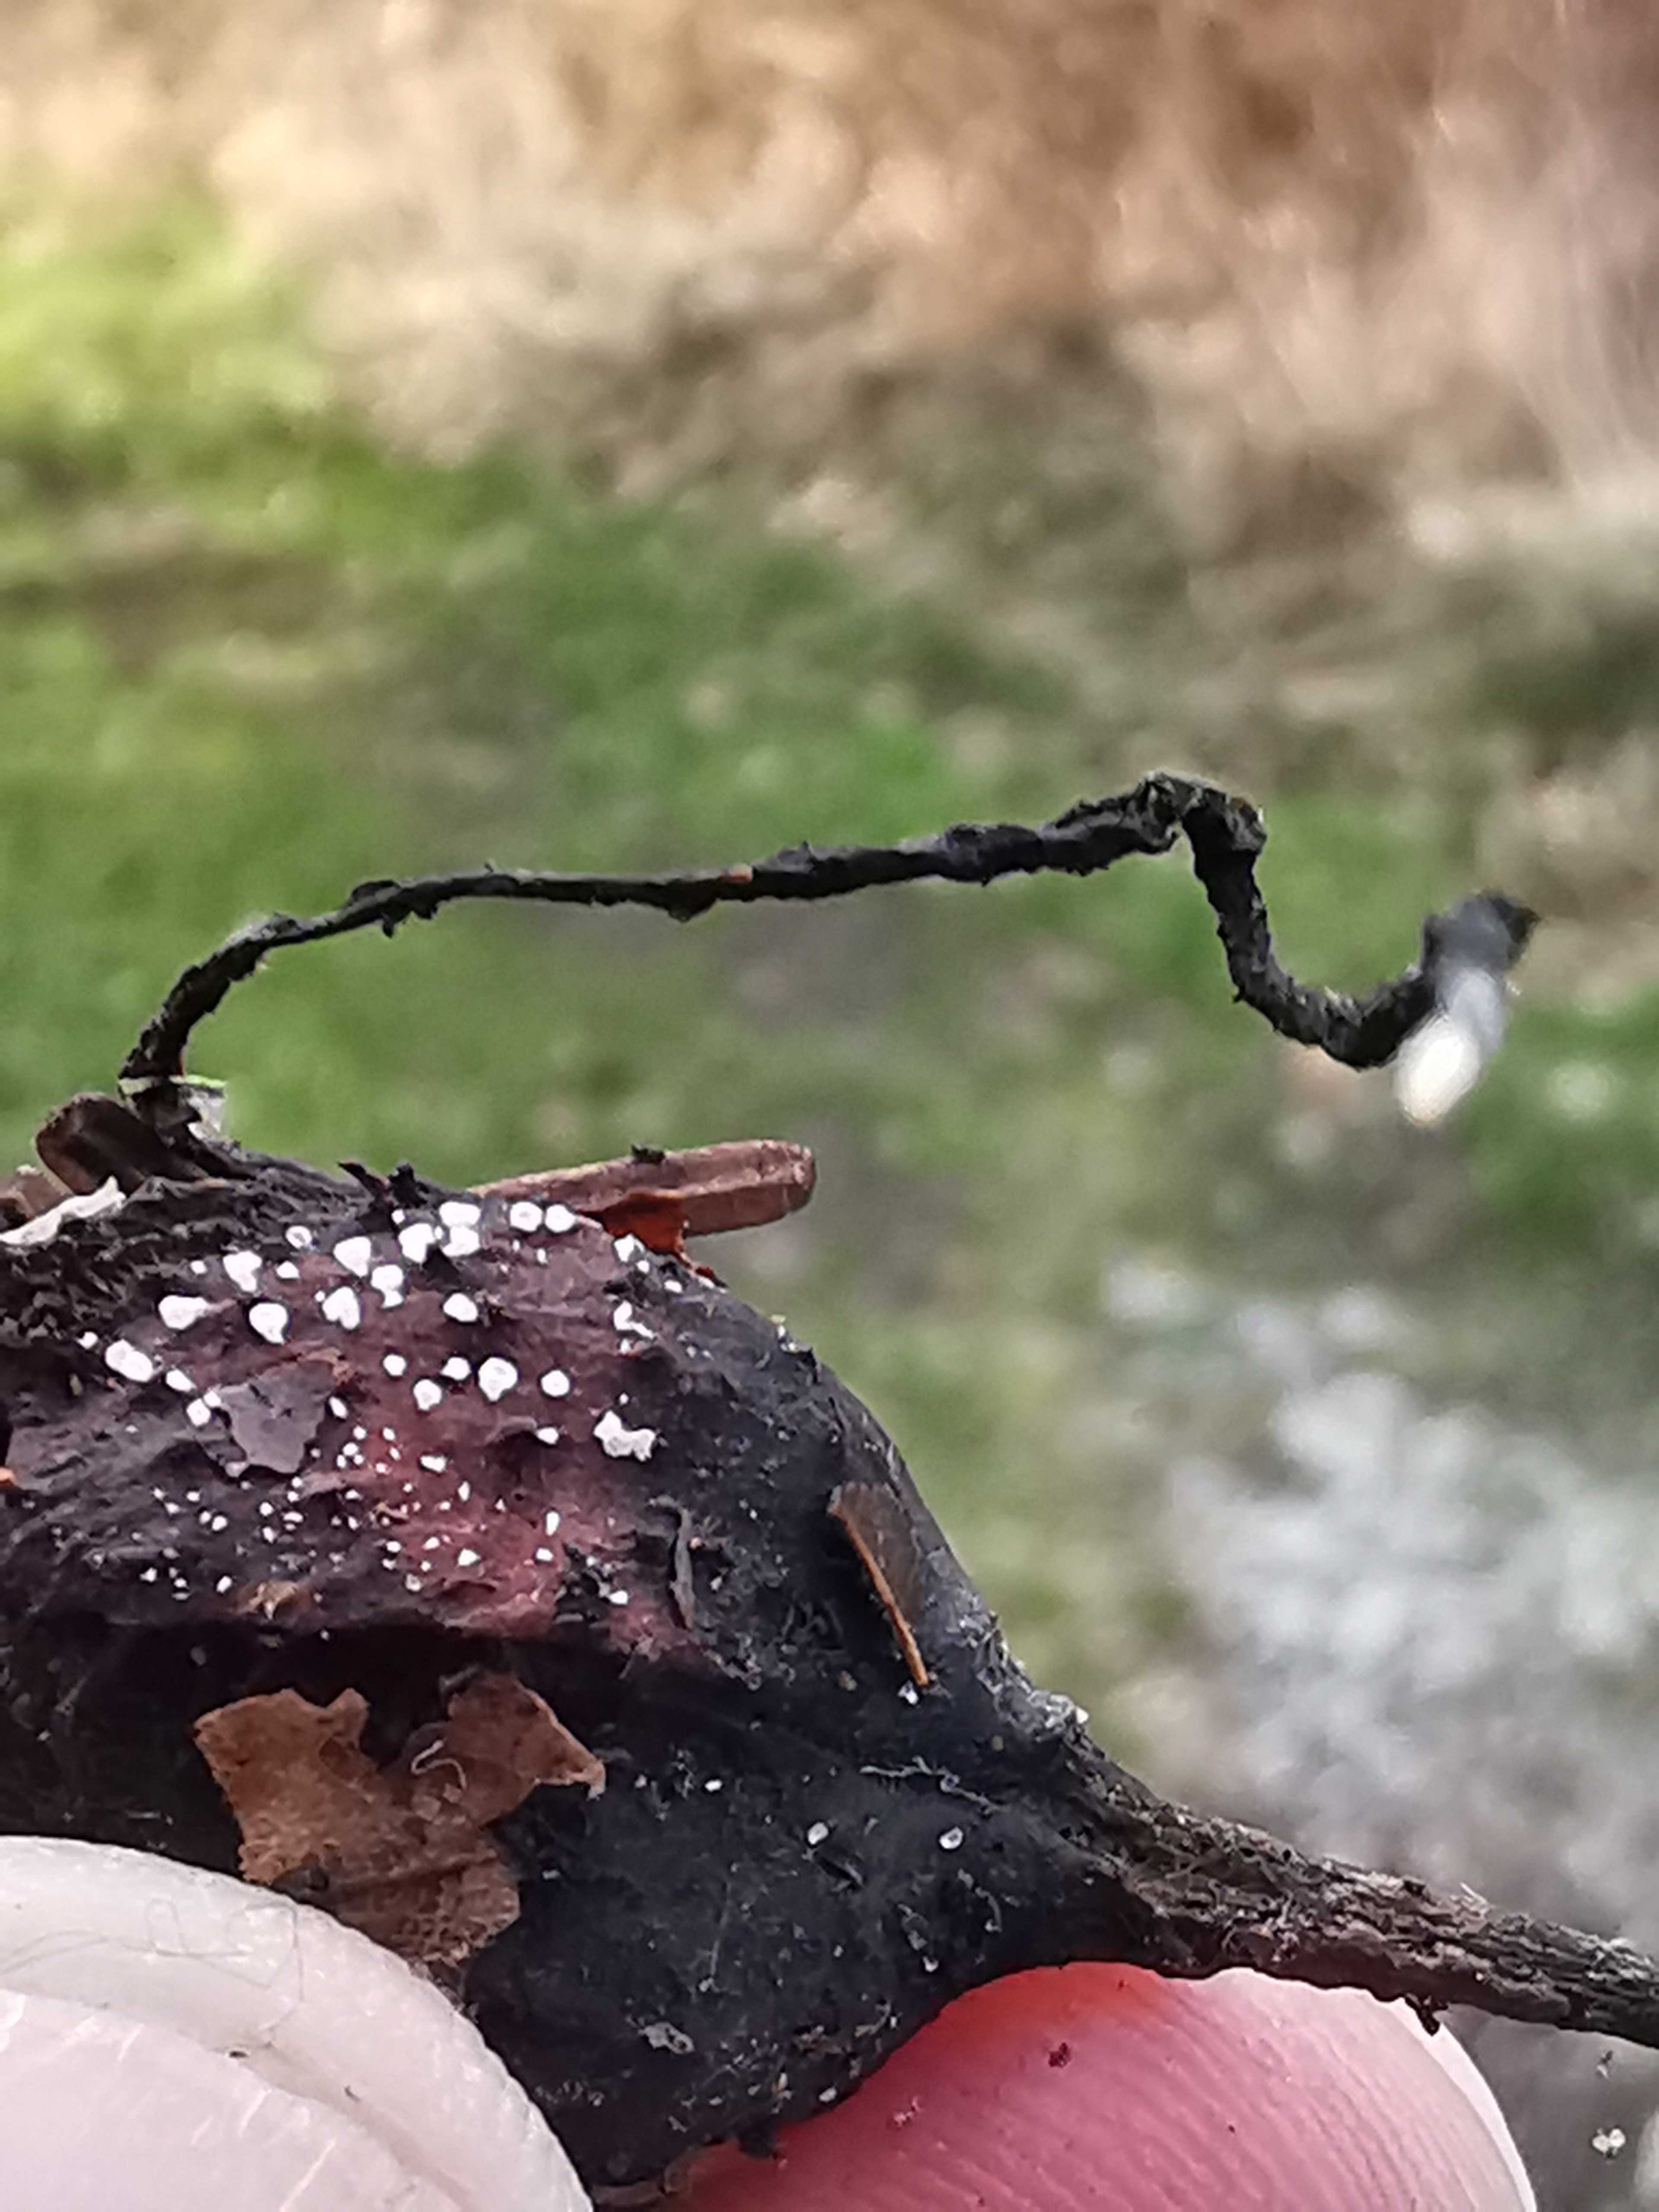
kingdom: Fungi
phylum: Ascomycota
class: Sordariomycetes
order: Xylariales
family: Xylariaceae
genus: Xylaria
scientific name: Xylaria carpophila
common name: bogskål-stødsvamp
